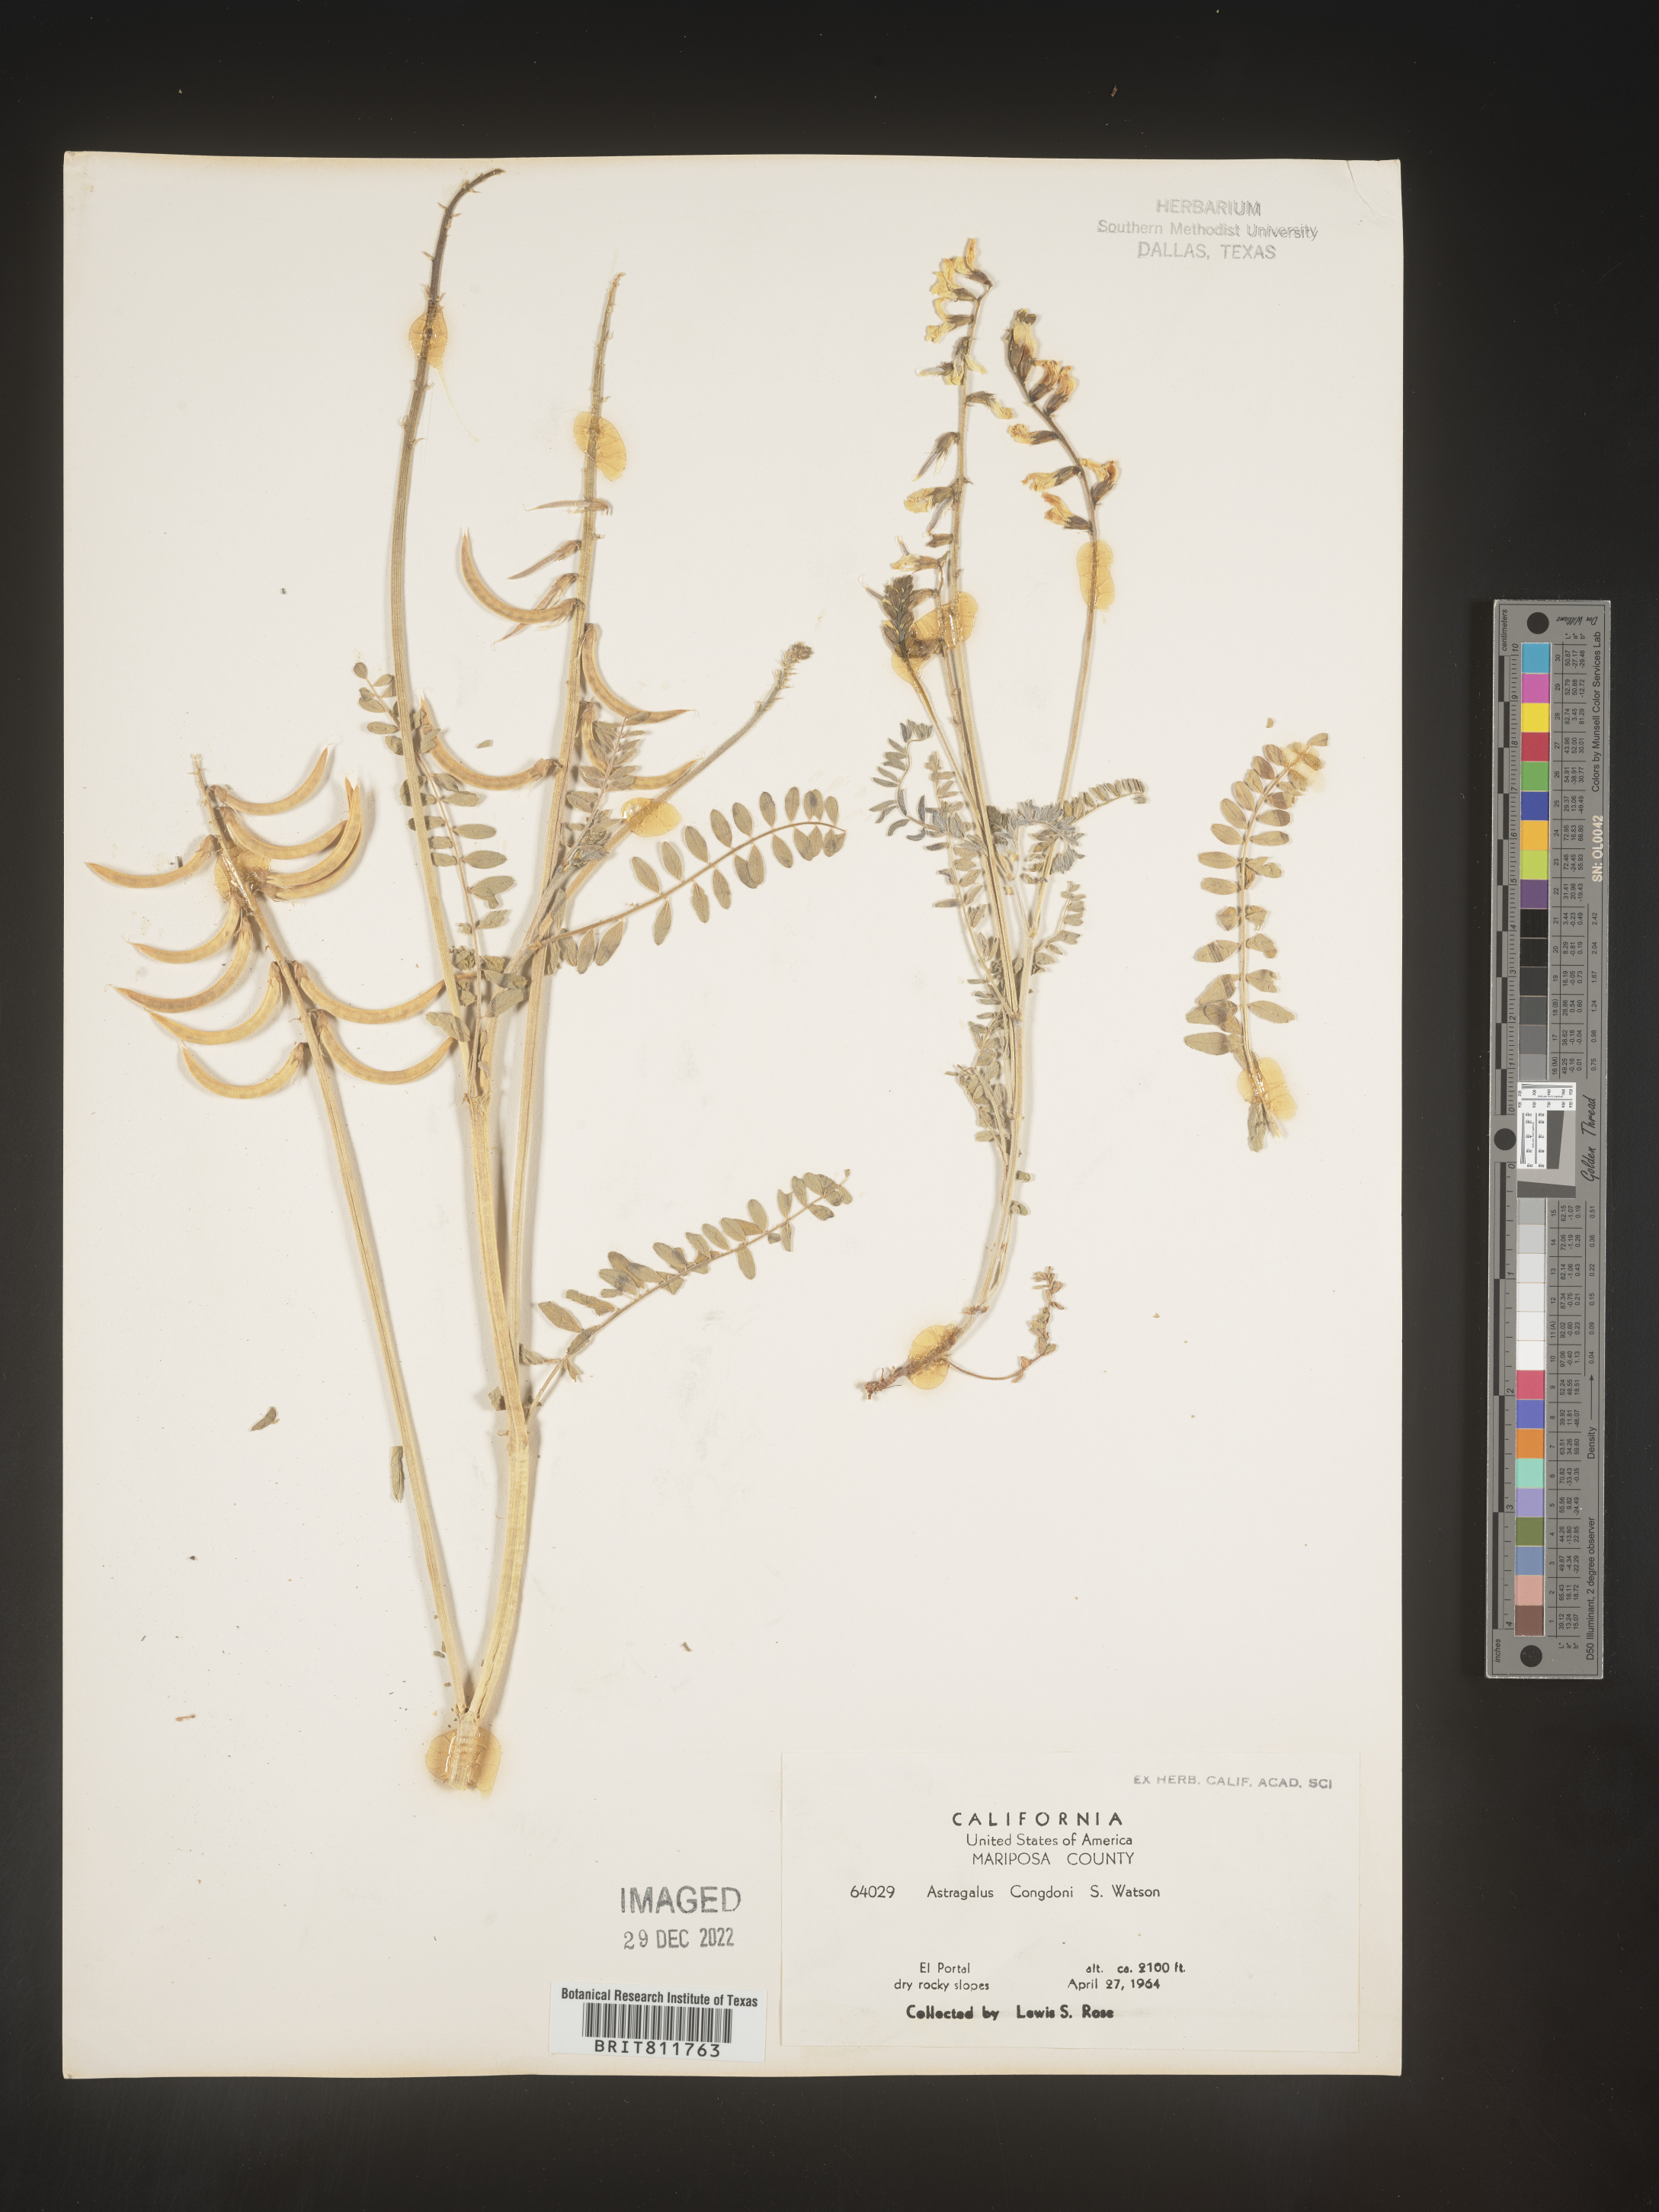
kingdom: Plantae
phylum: Tracheophyta
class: Magnoliopsida
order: Fabales
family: Fabaceae
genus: Astragalus
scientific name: Astragalus
